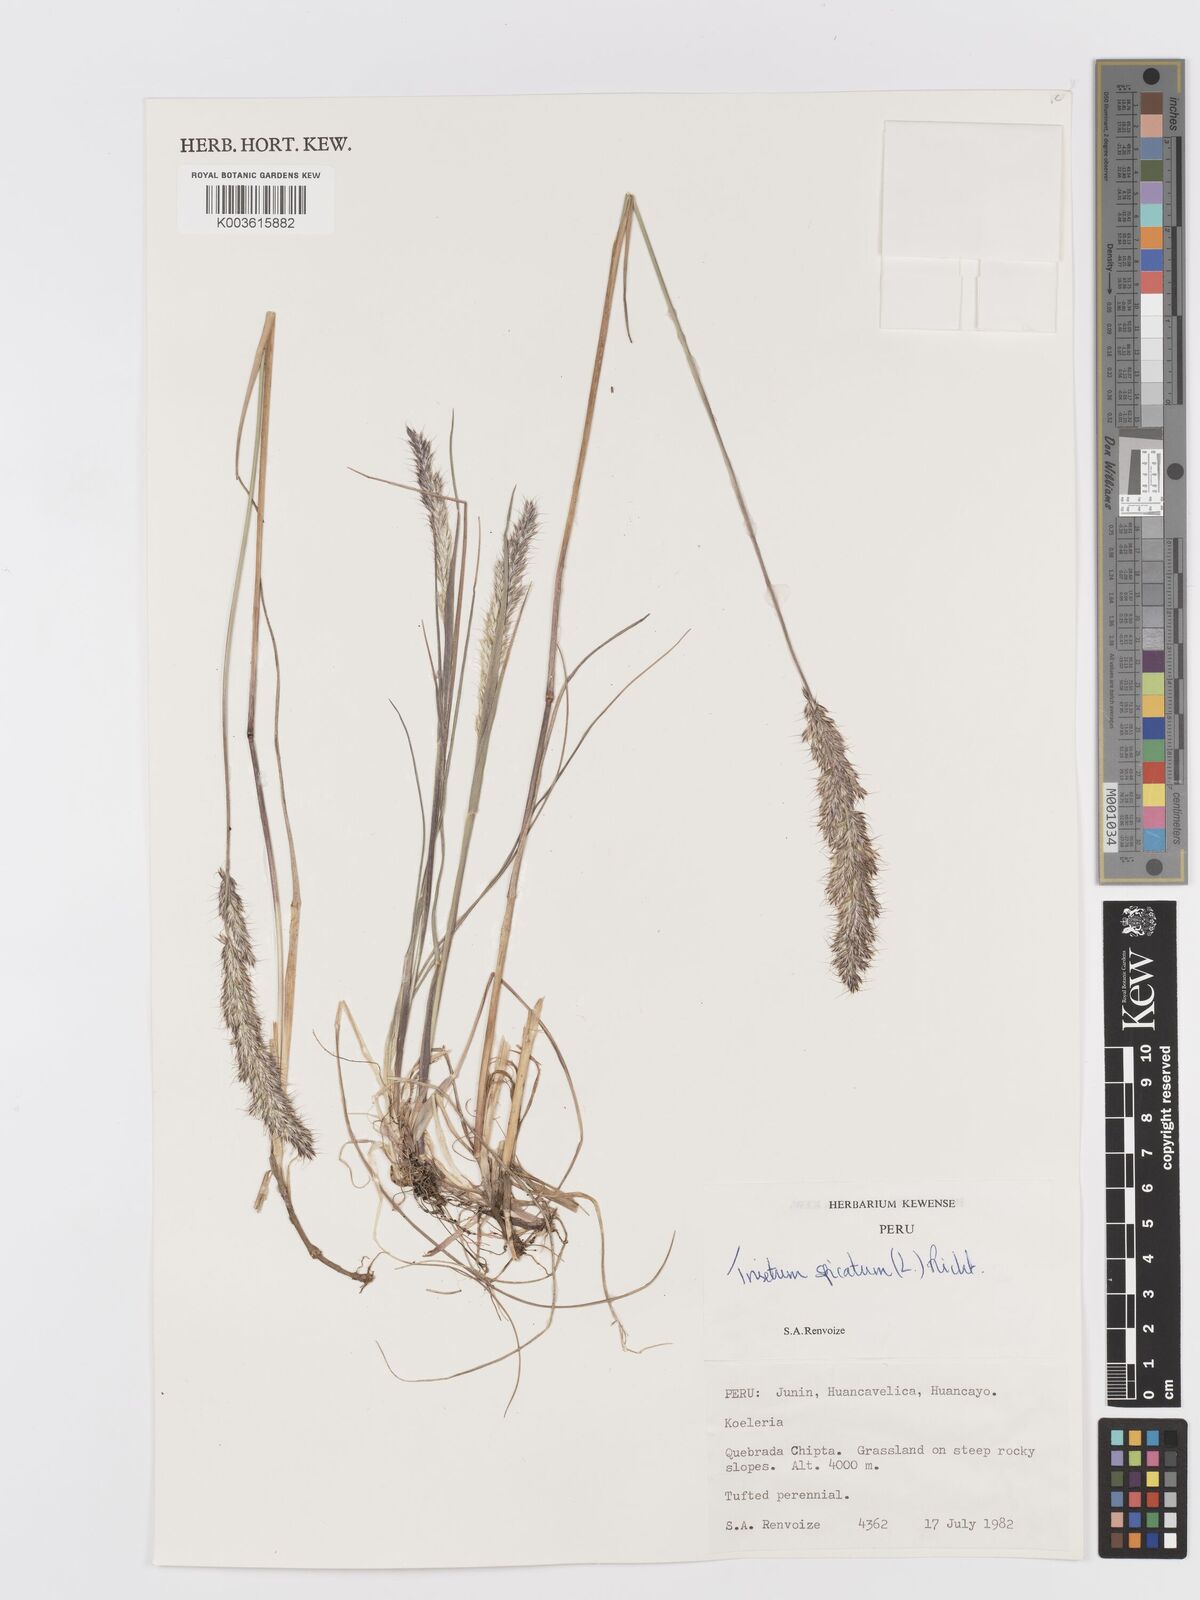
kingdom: Plantae
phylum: Tracheophyta
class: Liliopsida
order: Poales
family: Poaceae
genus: Koeleria
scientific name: Koeleria spicata
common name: Mountain trisetum
